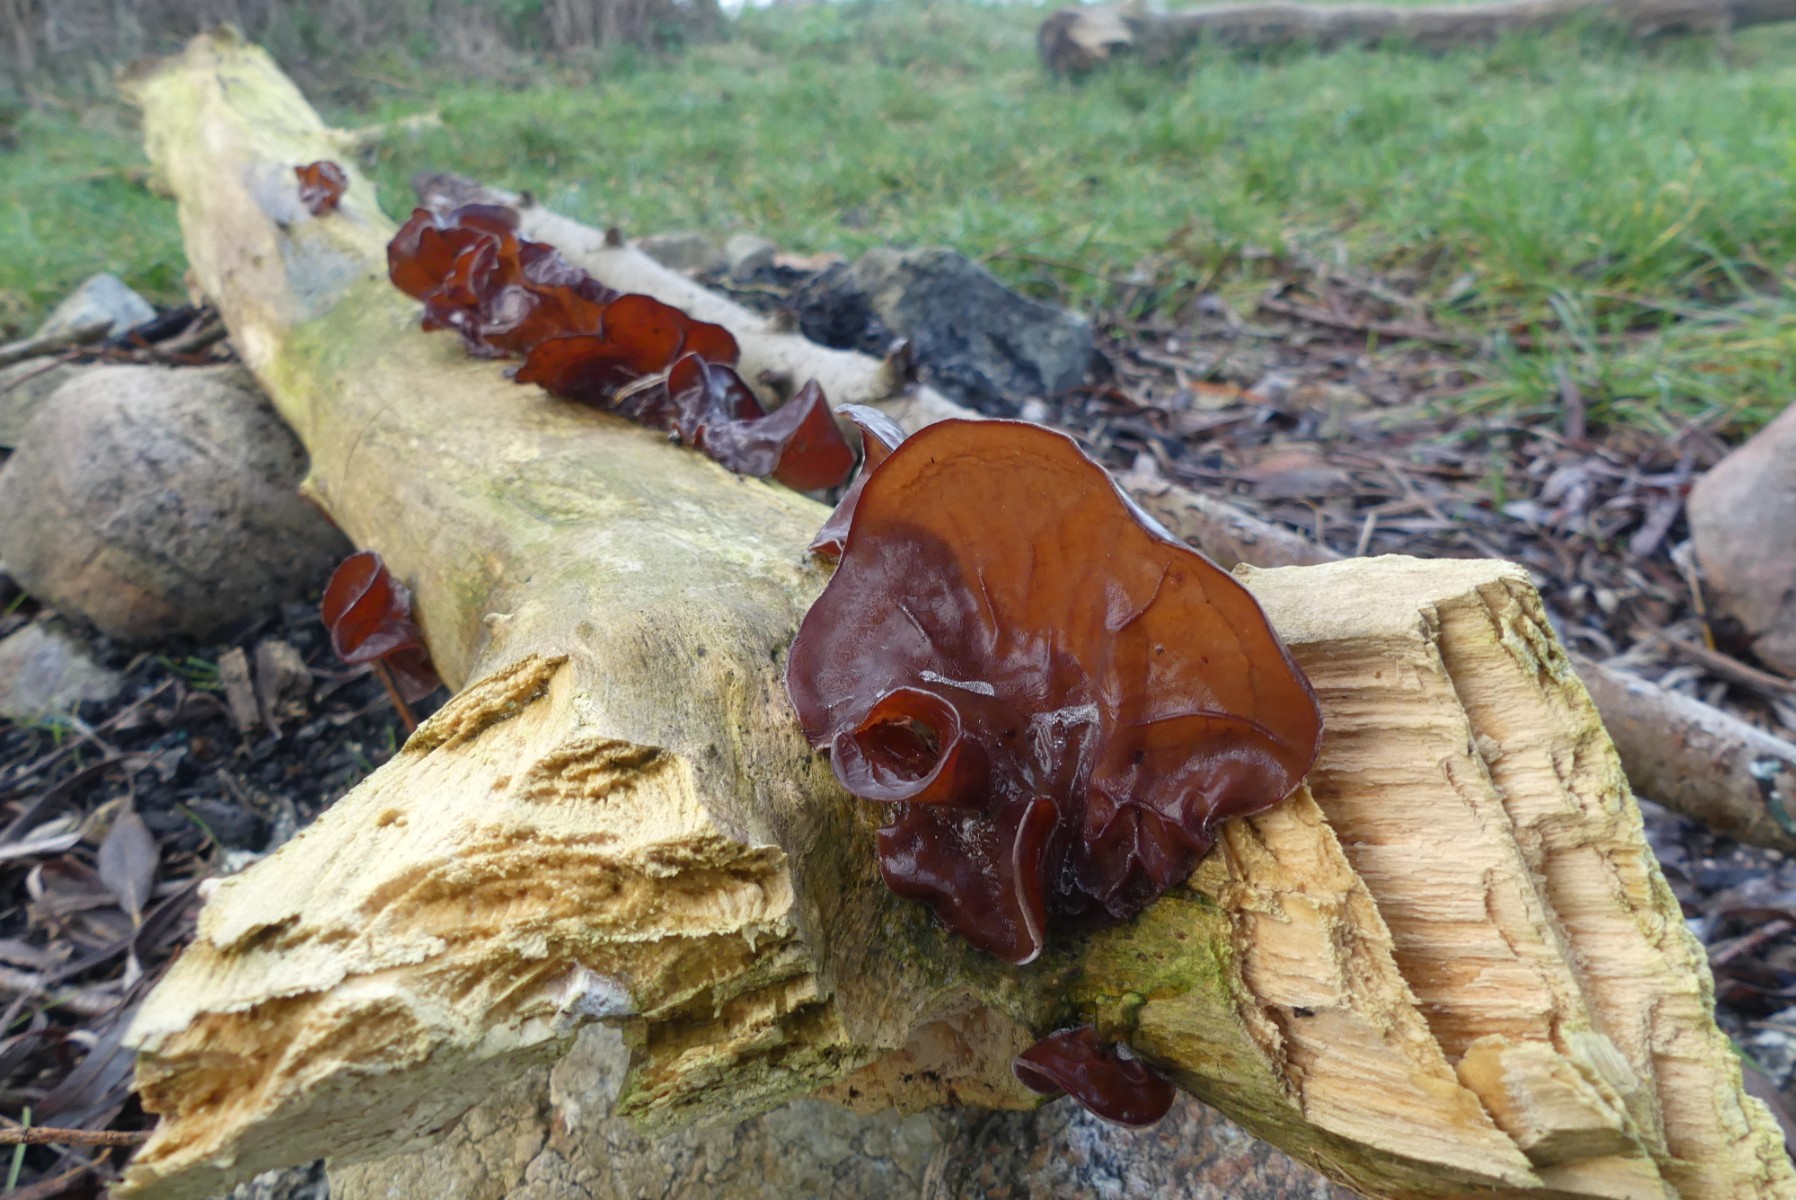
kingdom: Fungi
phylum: Basidiomycota
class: Agaricomycetes
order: Auriculariales
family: Auriculariaceae
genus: Auricularia
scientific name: Auricularia auricula-judae
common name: almindelig judasøre
